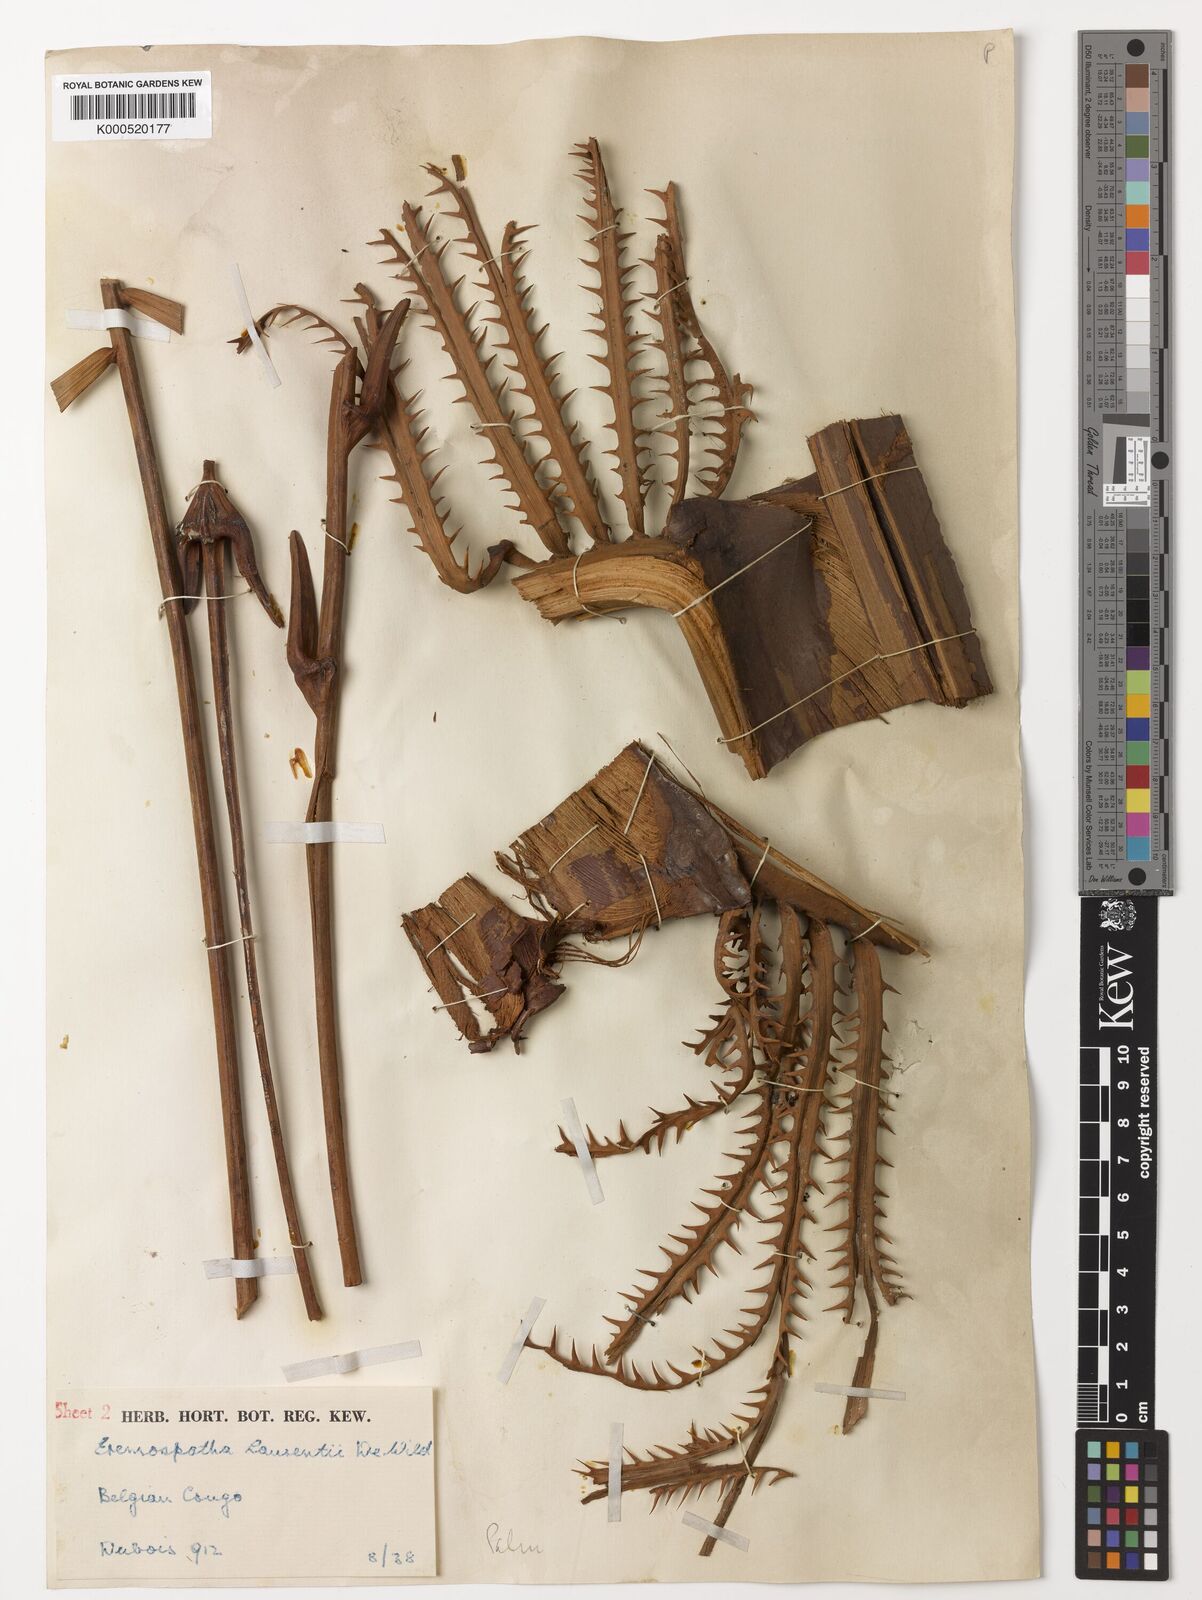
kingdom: Plantae
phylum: Tracheophyta
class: Liliopsida
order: Arecales
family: Arecaceae
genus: Eremospatha
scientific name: Eremospatha laurentii
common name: Rattan palm
